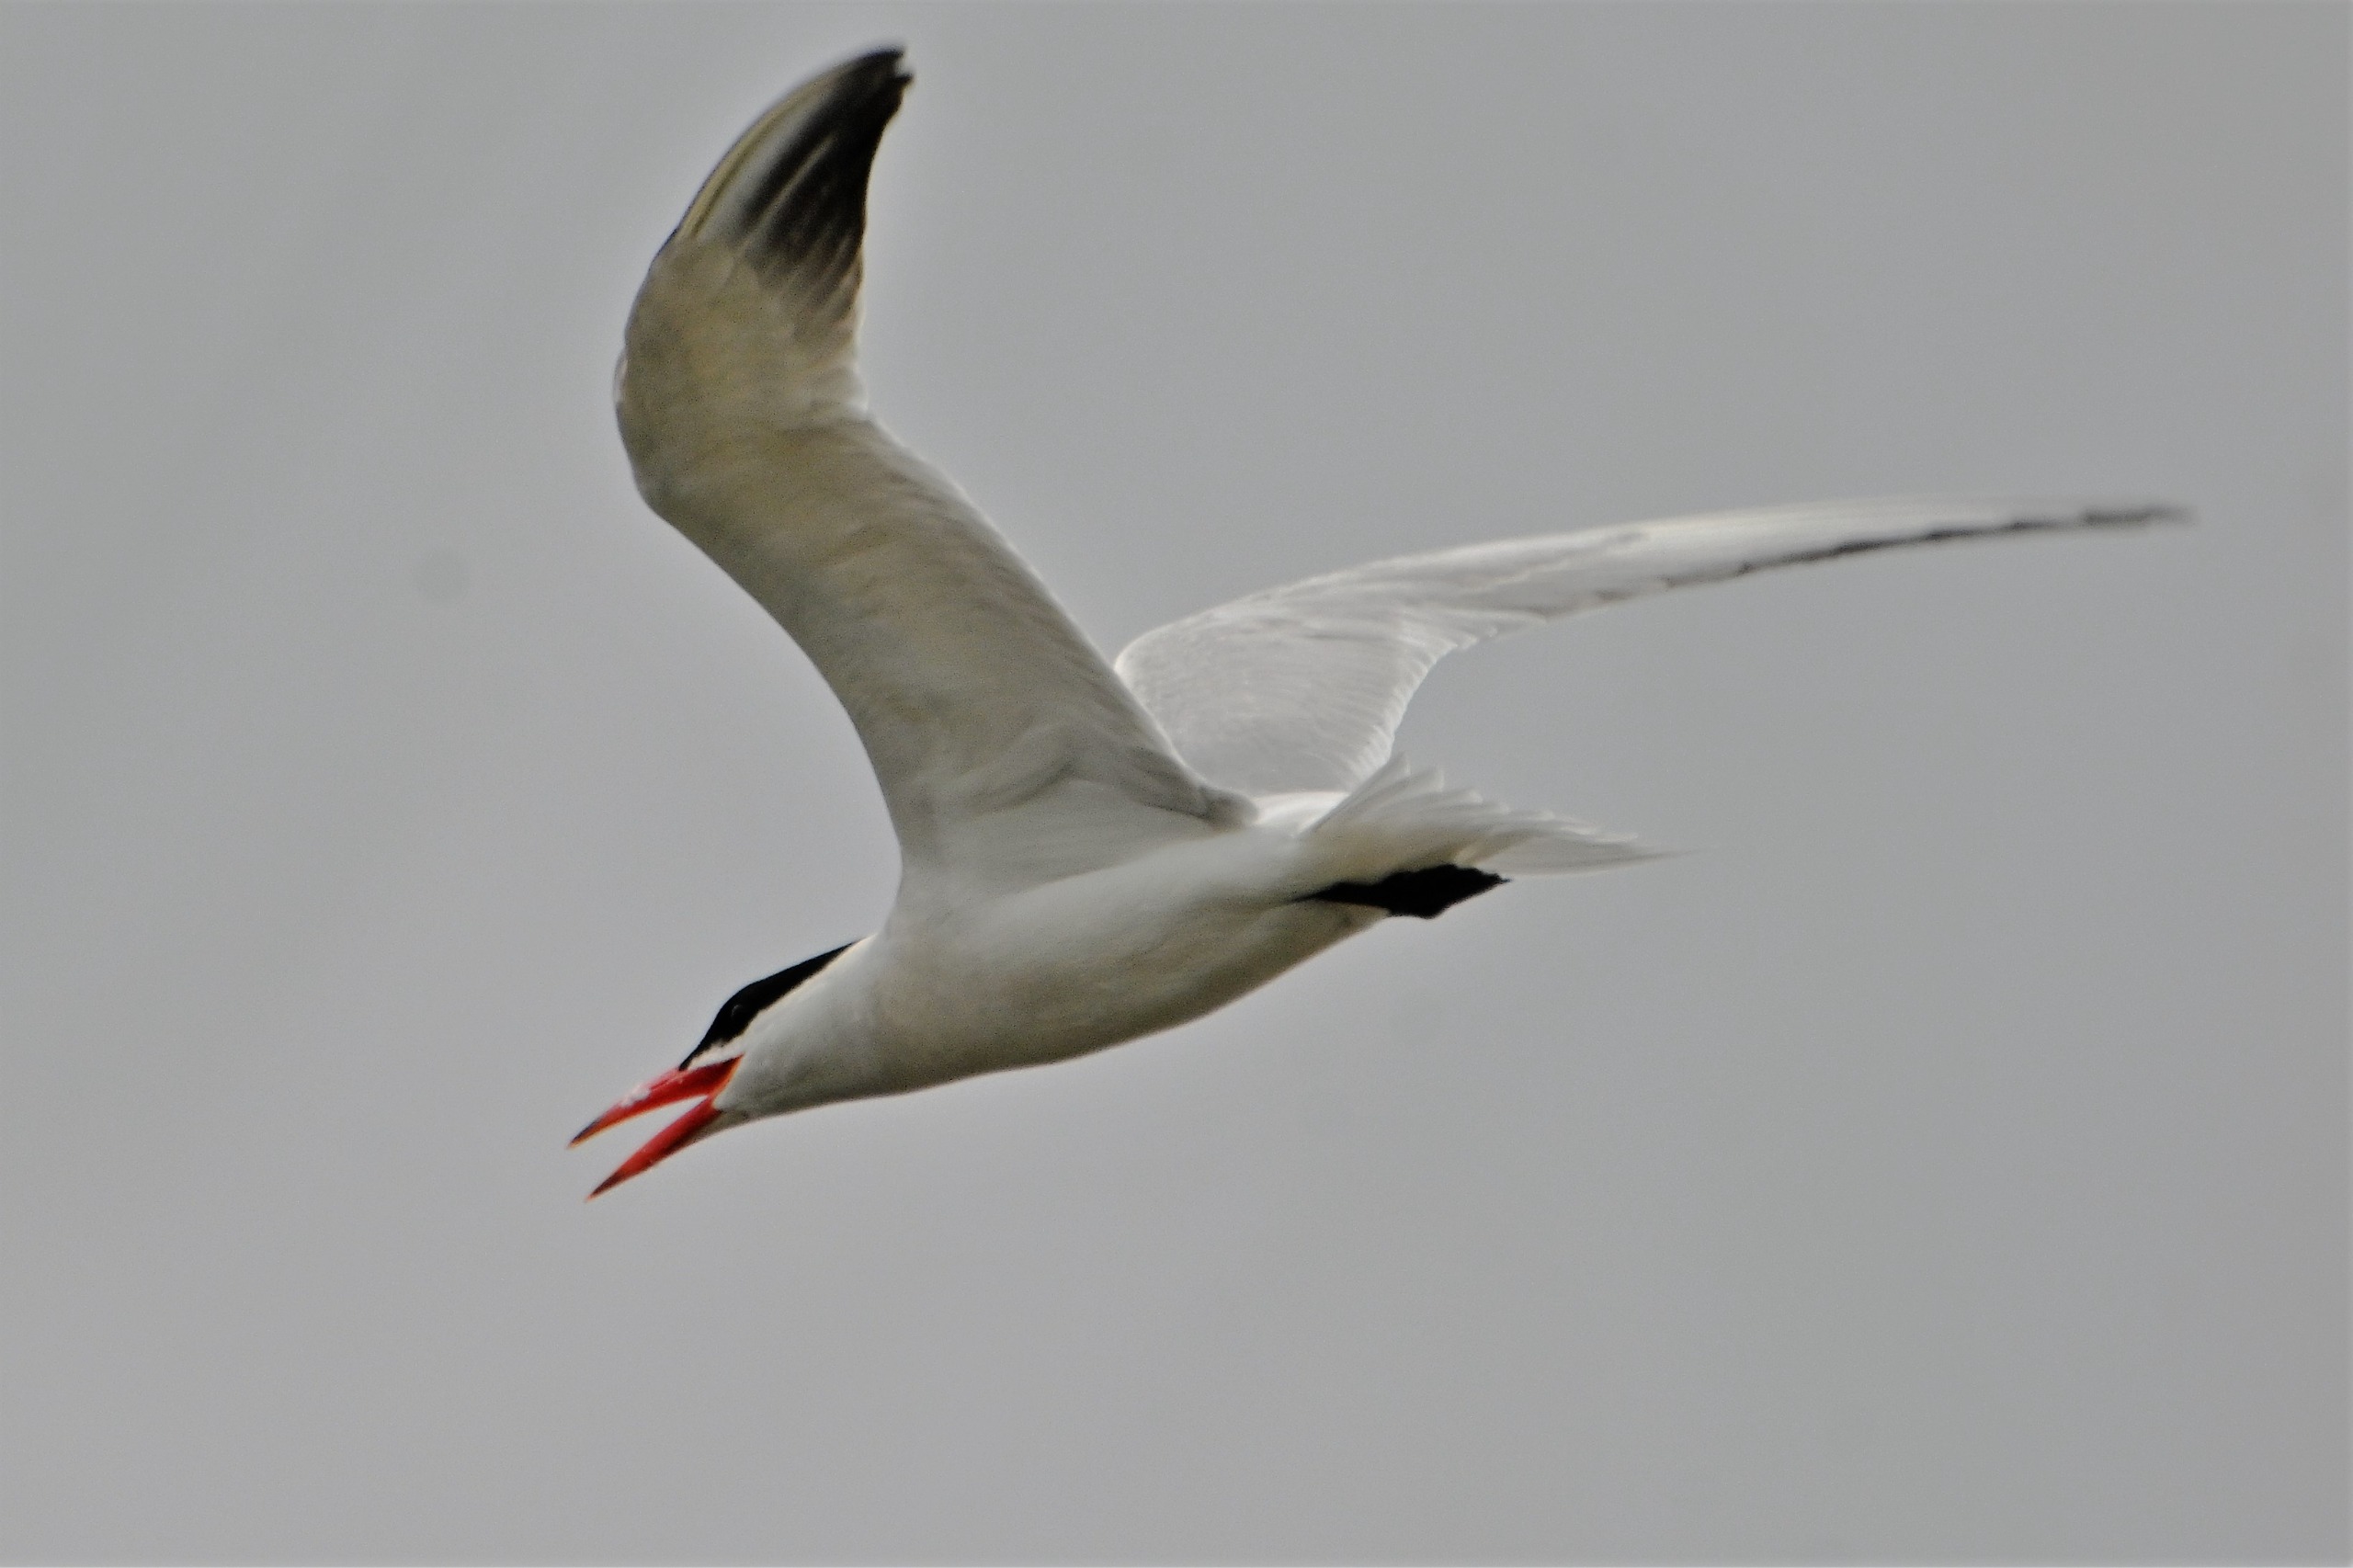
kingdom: Animalia
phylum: Chordata
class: Aves
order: Charadriiformes
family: Laridae
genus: Hydroprogne
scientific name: Hydroprogne caspia
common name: Rovterne
